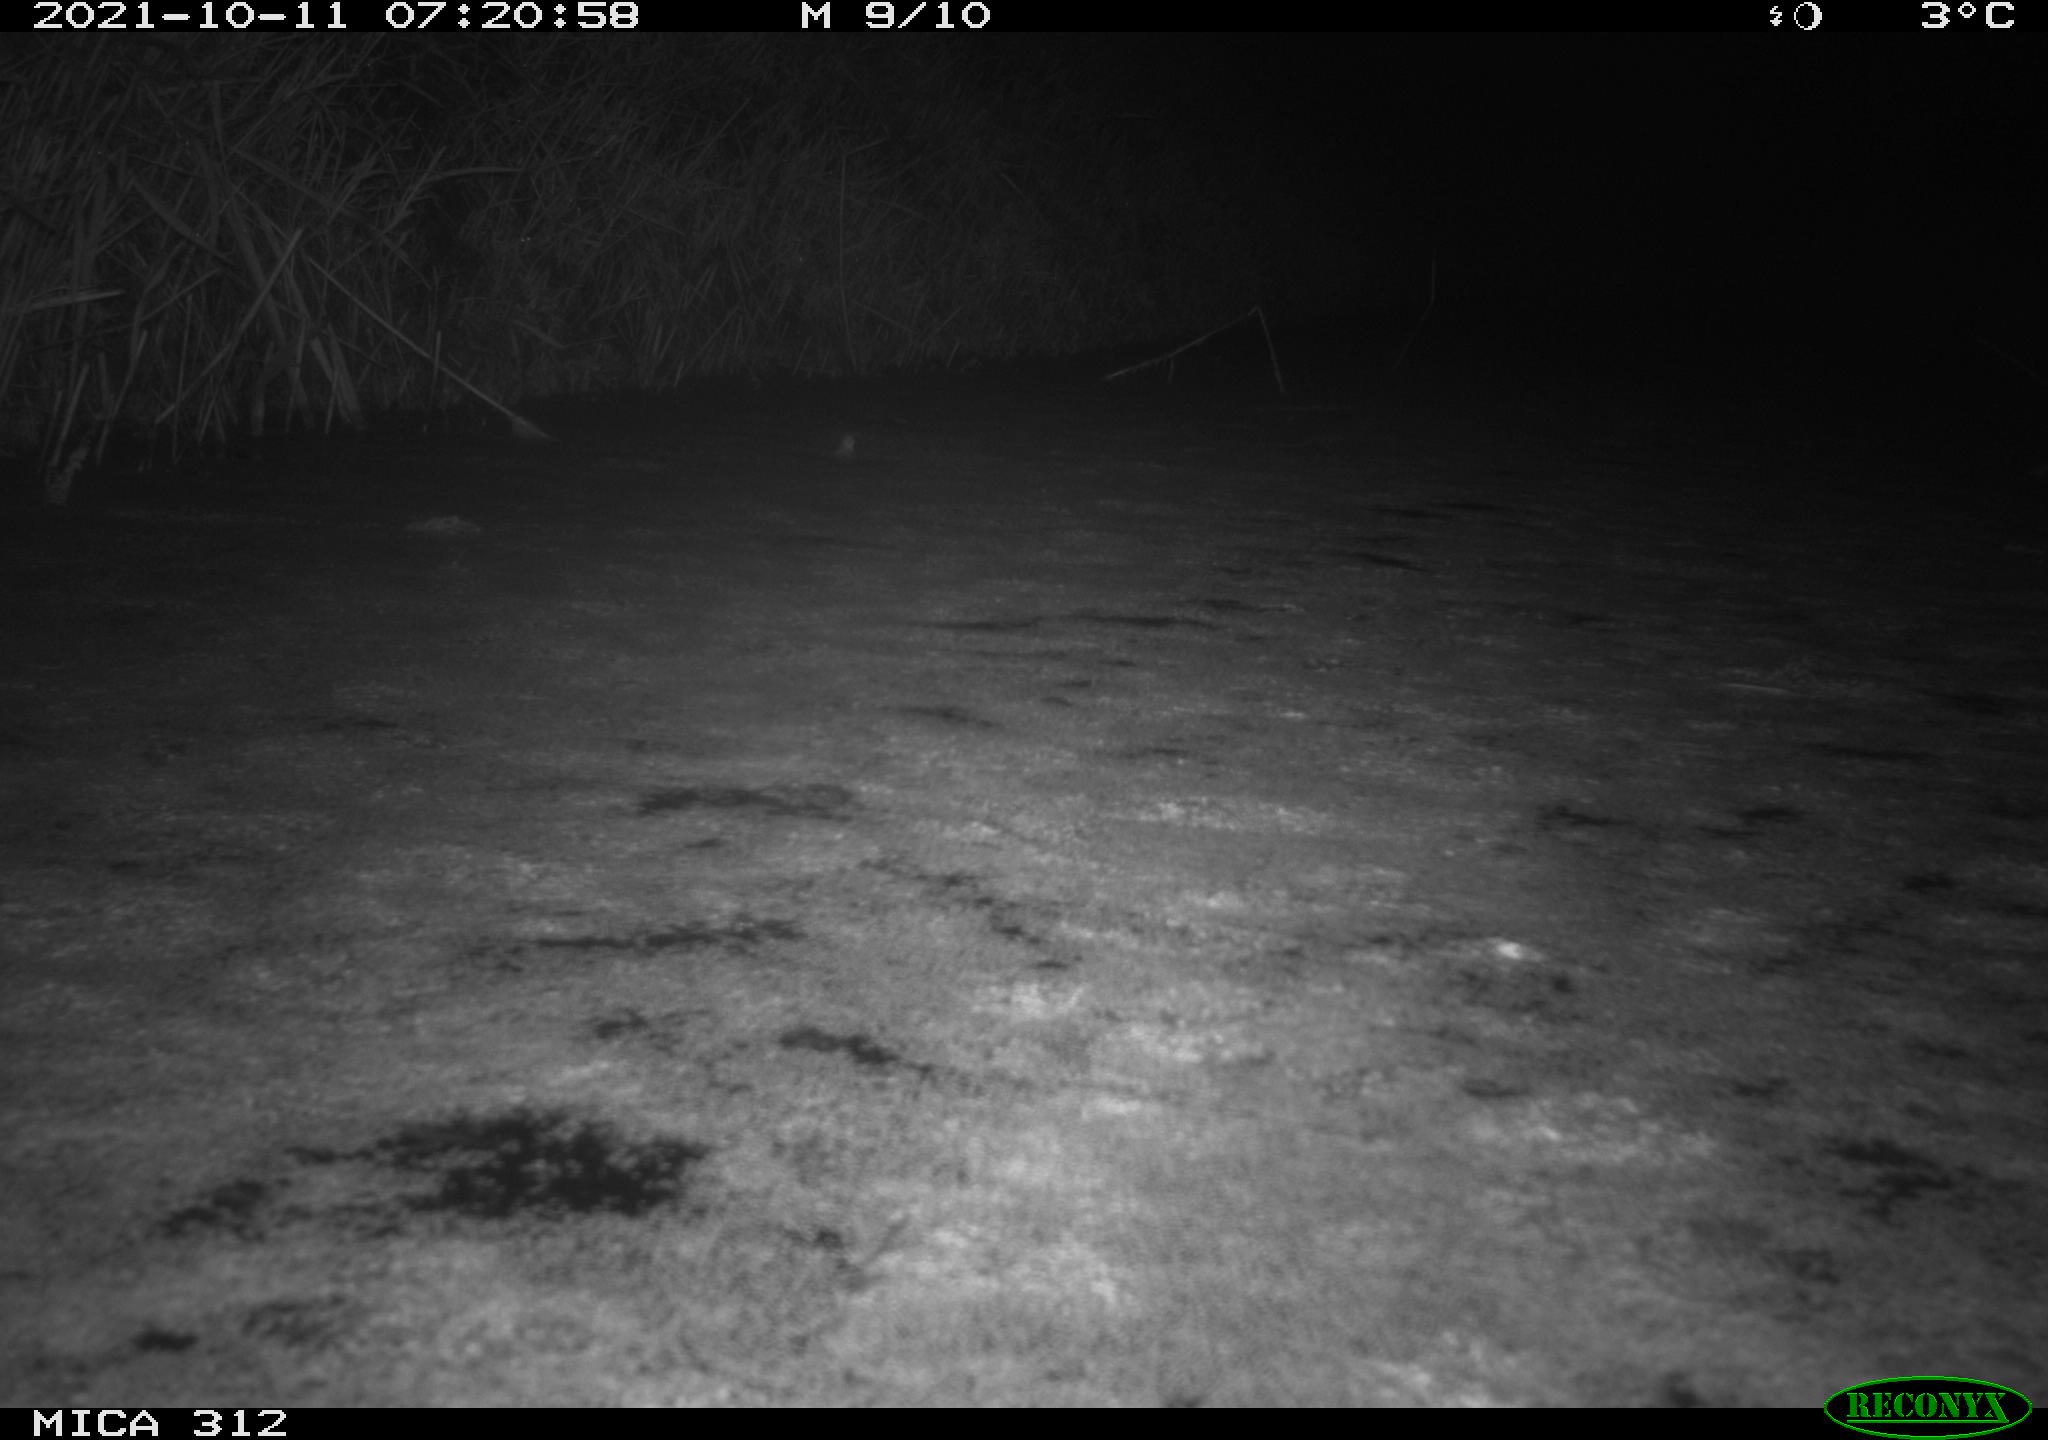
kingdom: Animalia
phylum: Chordata
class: Mammalia
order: Rodentia
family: Muridae
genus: Rattus
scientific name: Rattus norvegicus
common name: Brown rat
